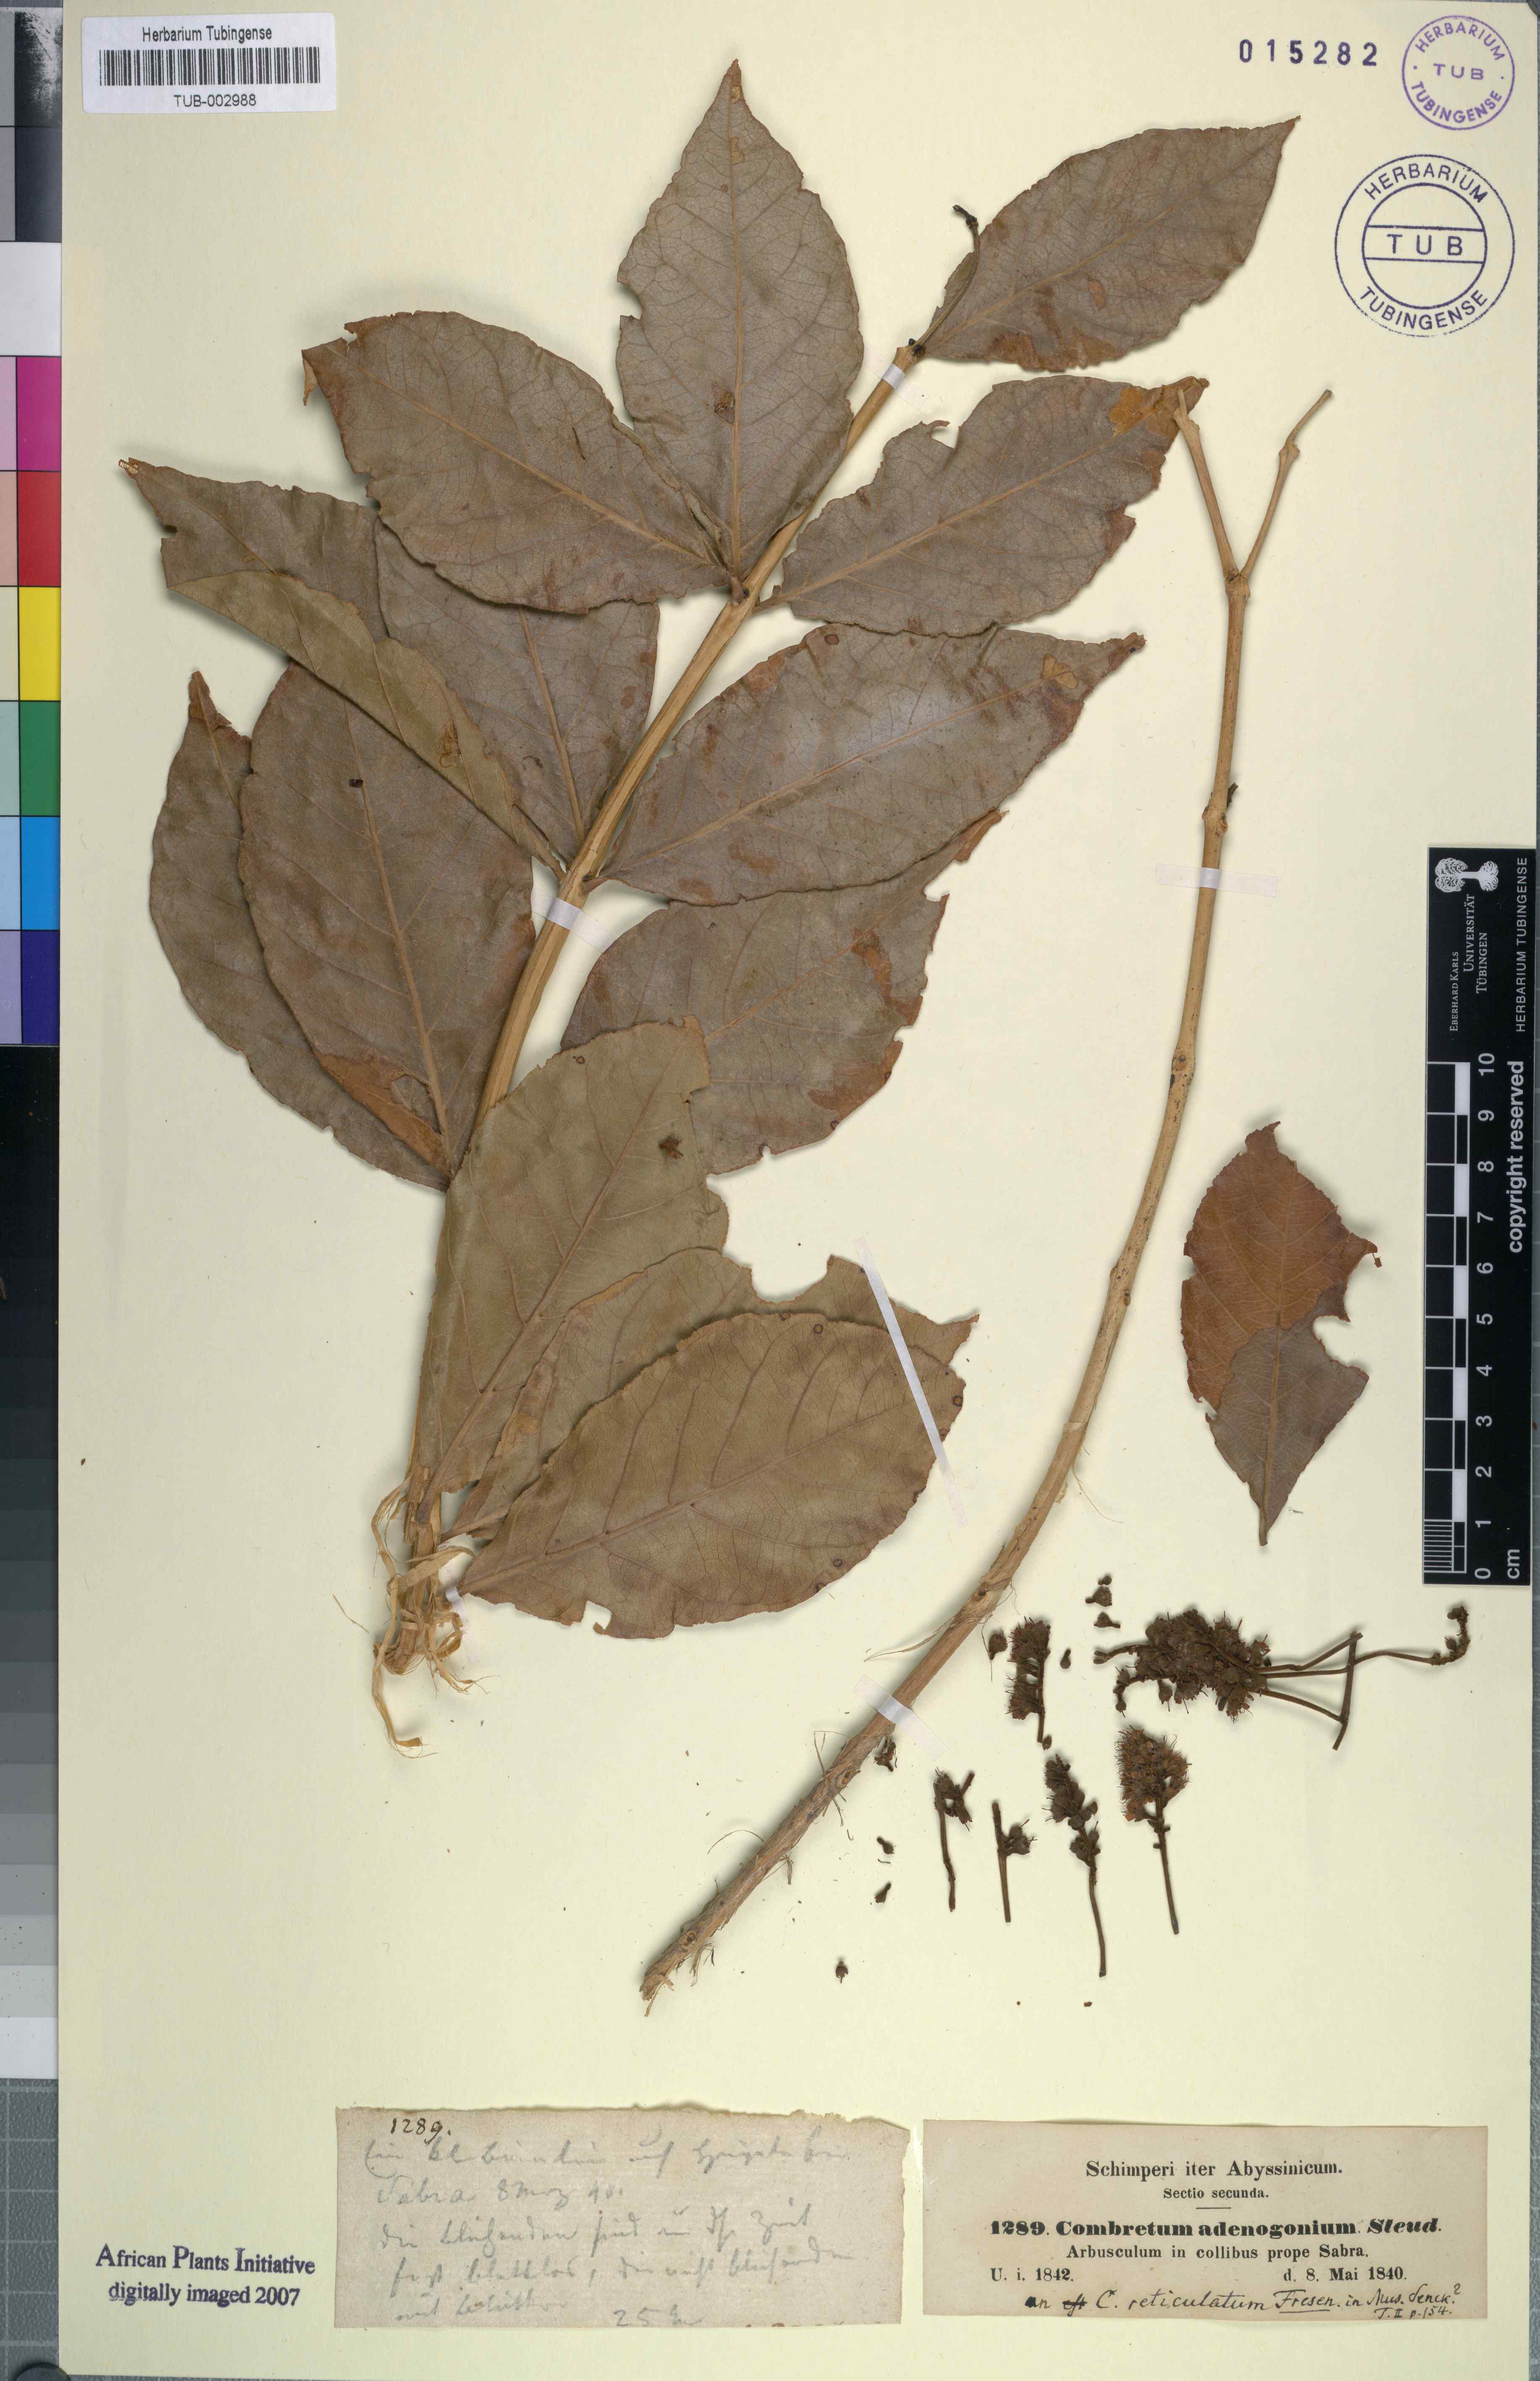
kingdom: Plantae
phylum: Tracheophyta
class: Magnoliopsida
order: Myrtales
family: Combretaceae
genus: Combretum
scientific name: Combretum adenogonium
